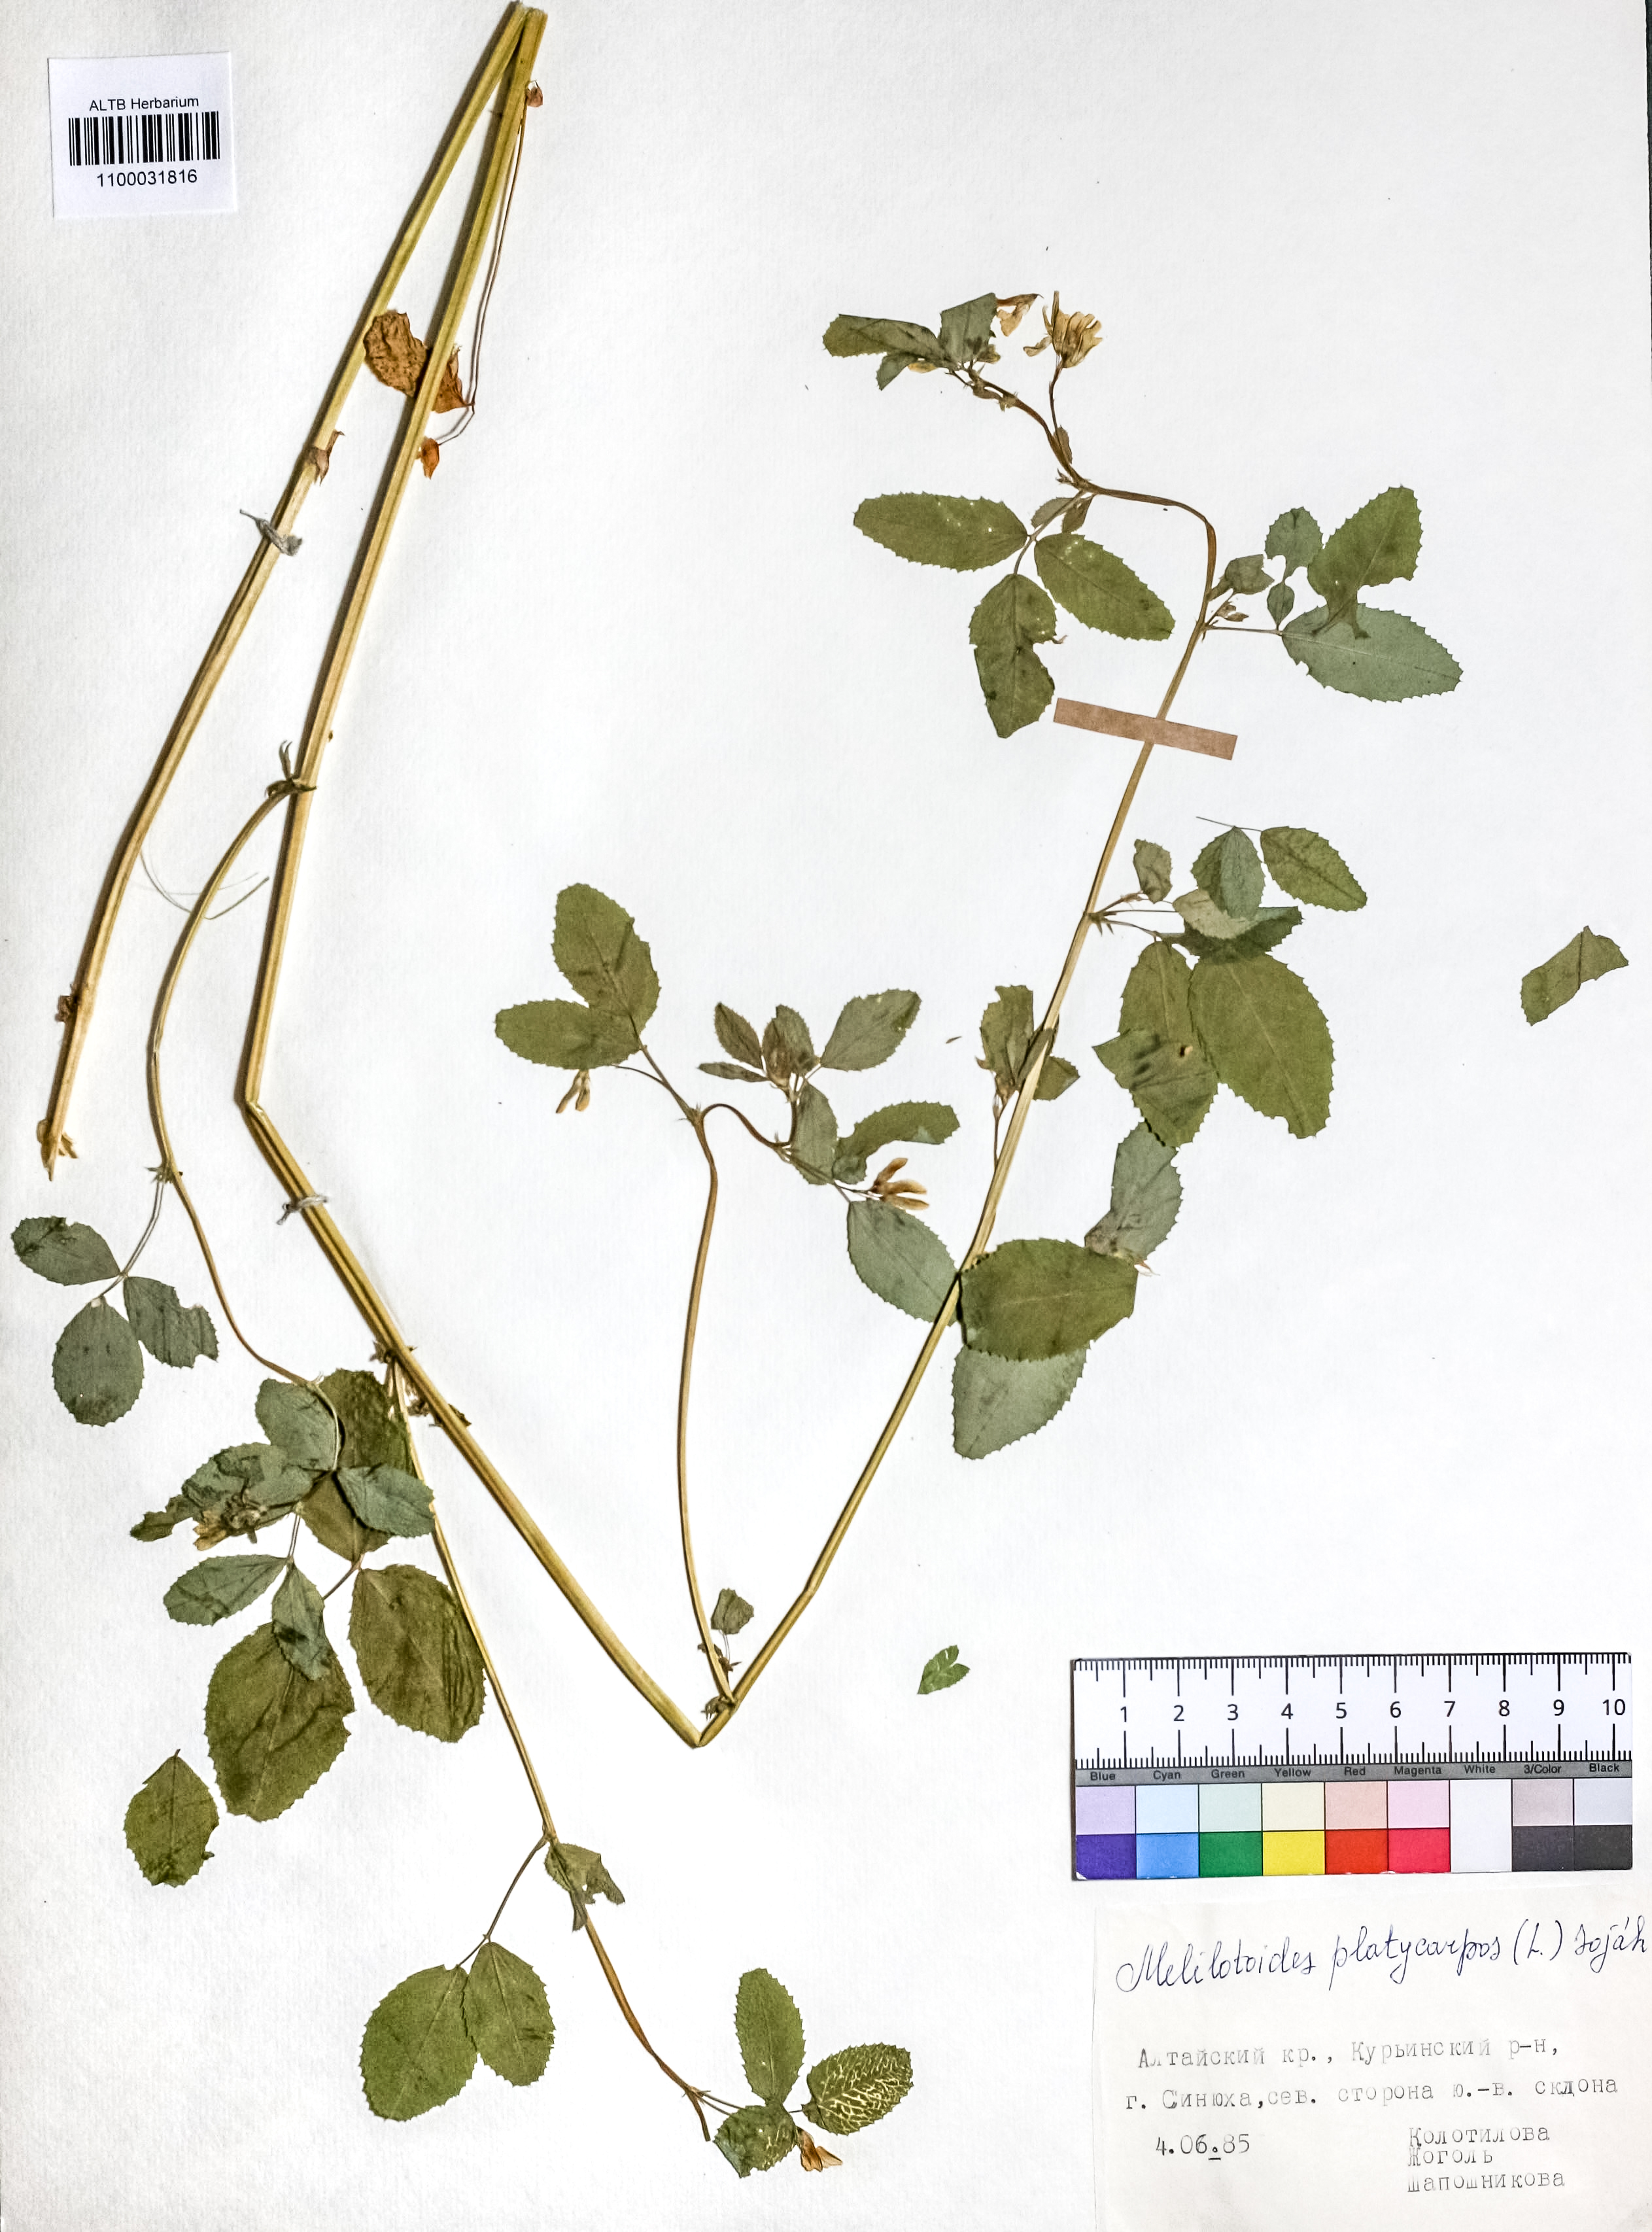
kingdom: Plantae
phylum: Tracheophyta
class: Magnoliopsida
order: Fabales
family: Fabaceae
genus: Medicago
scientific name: Medicago platycarpos
